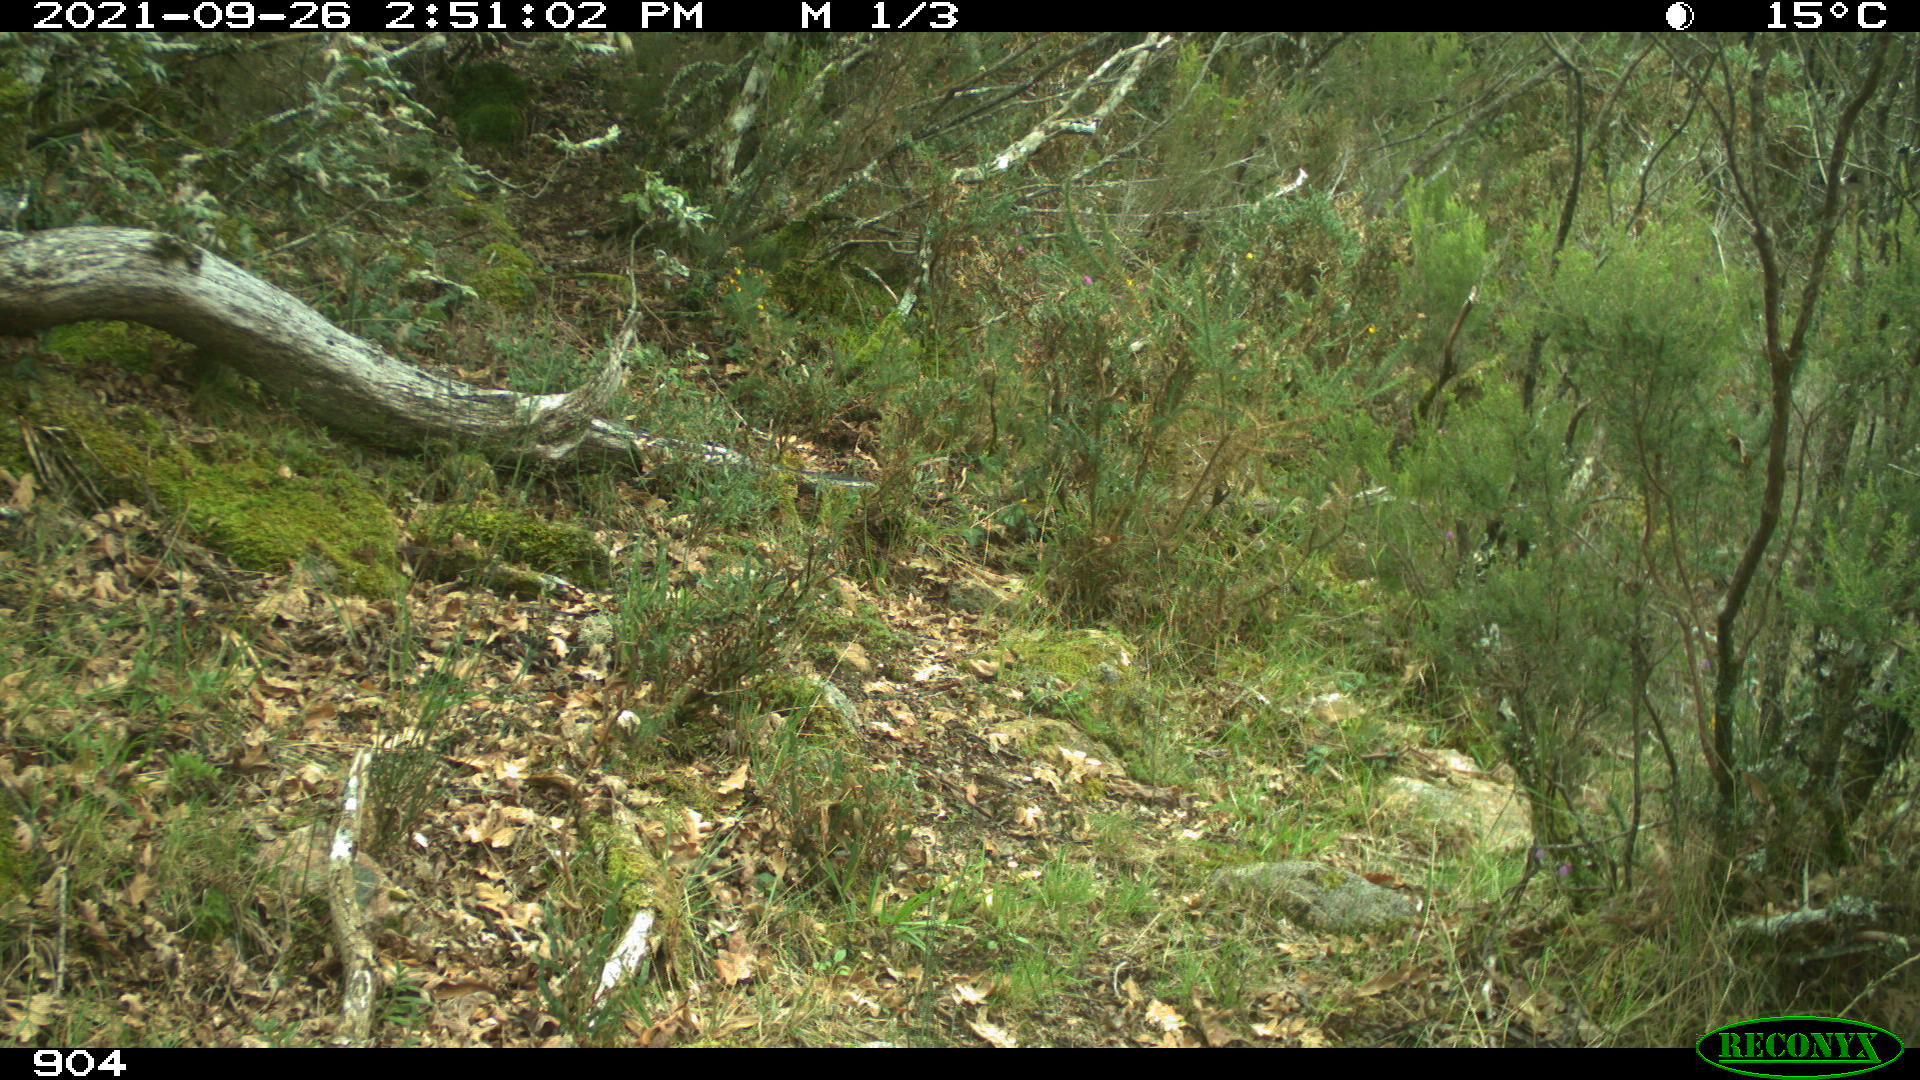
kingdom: Animalia
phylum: Chordata
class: Mammalia
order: Artiodactyla
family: Bovidae
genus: Bos
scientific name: Bos taurus
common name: Domesticated cattle
